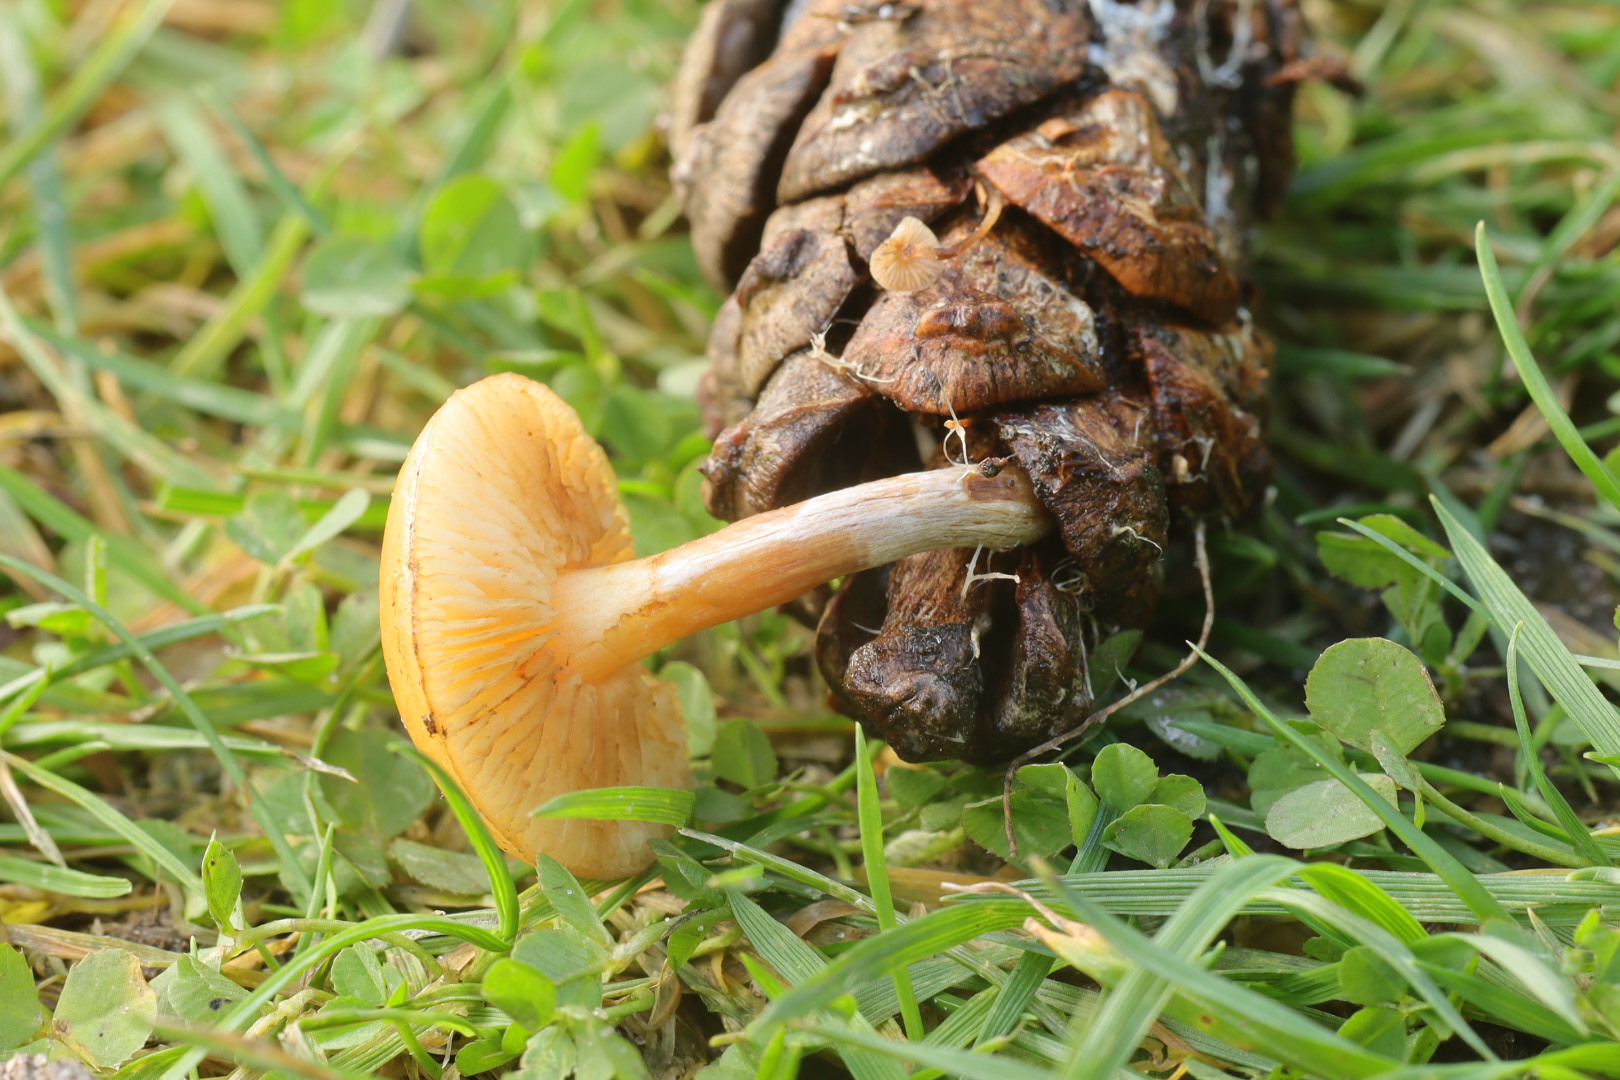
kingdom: Fungi
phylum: Basidiomycota
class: Agaricomycetes
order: Agaricales
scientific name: Agaricales
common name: champignonordenen
